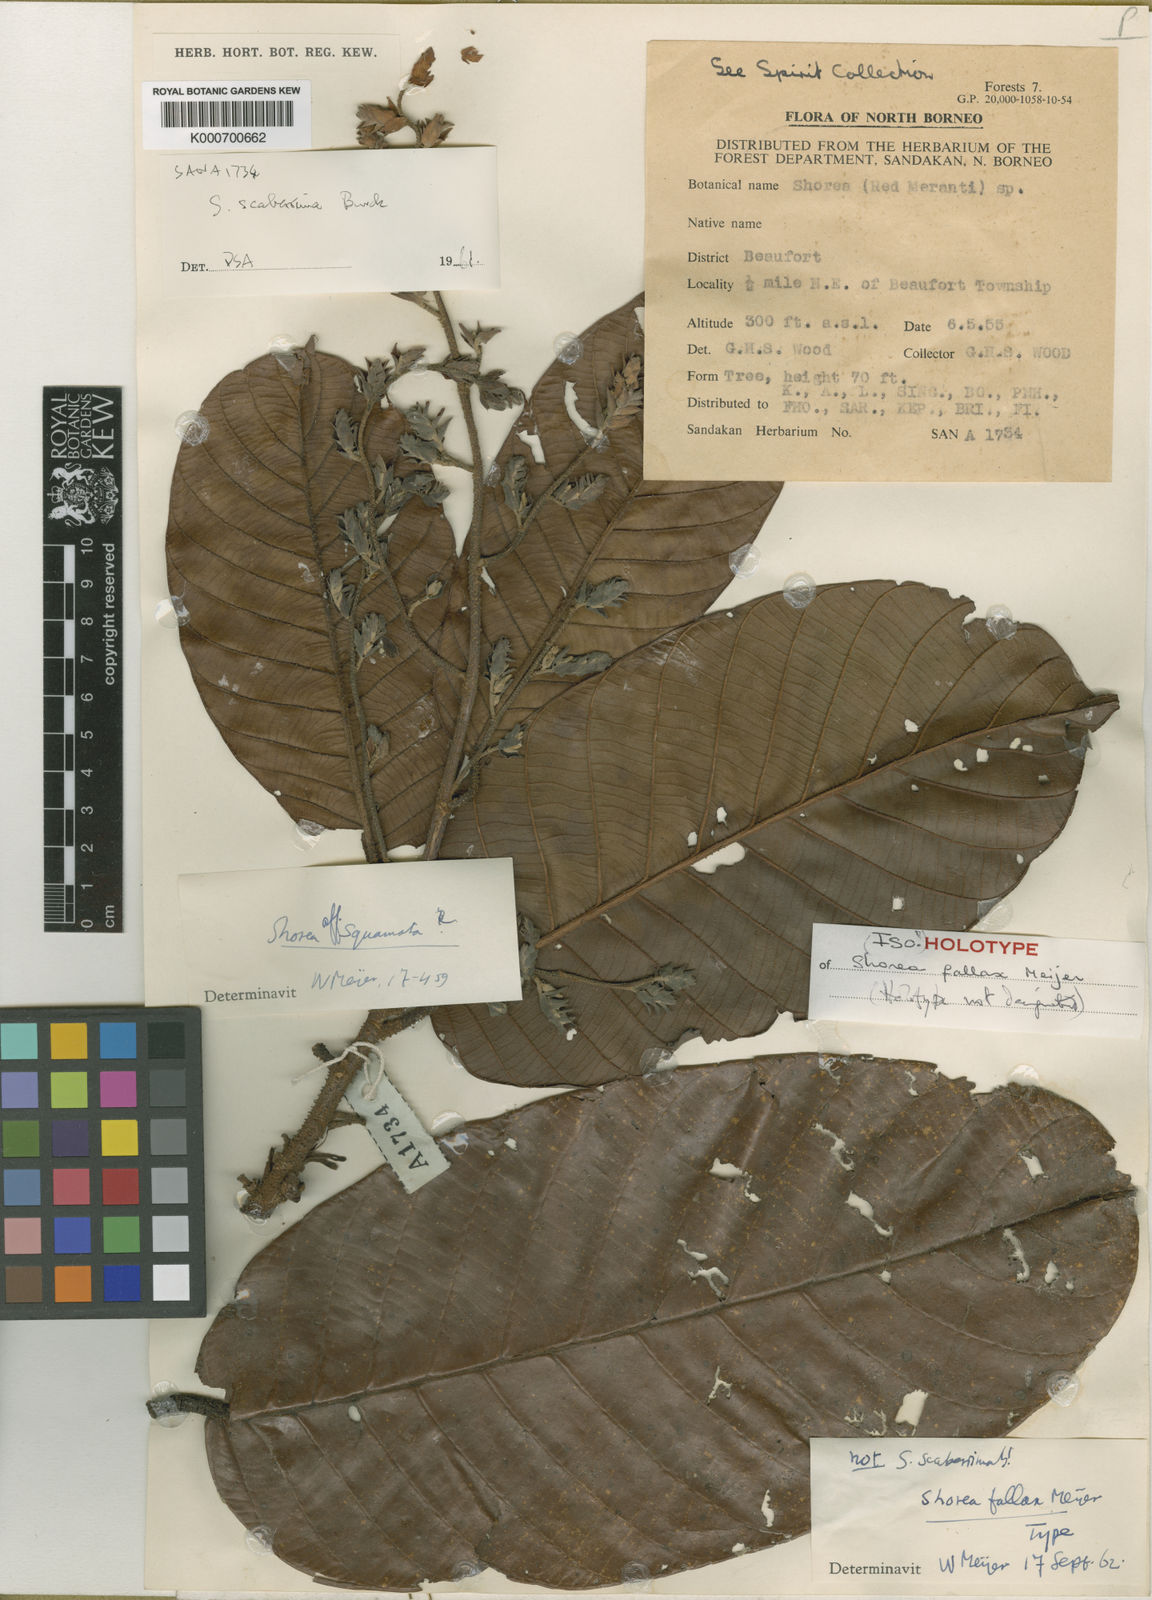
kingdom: Plantae
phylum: Tracheophyta
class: Magnoliopsida
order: Malvales
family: Dipterocarpaceae
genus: Shorea
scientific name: Shorea fallax
